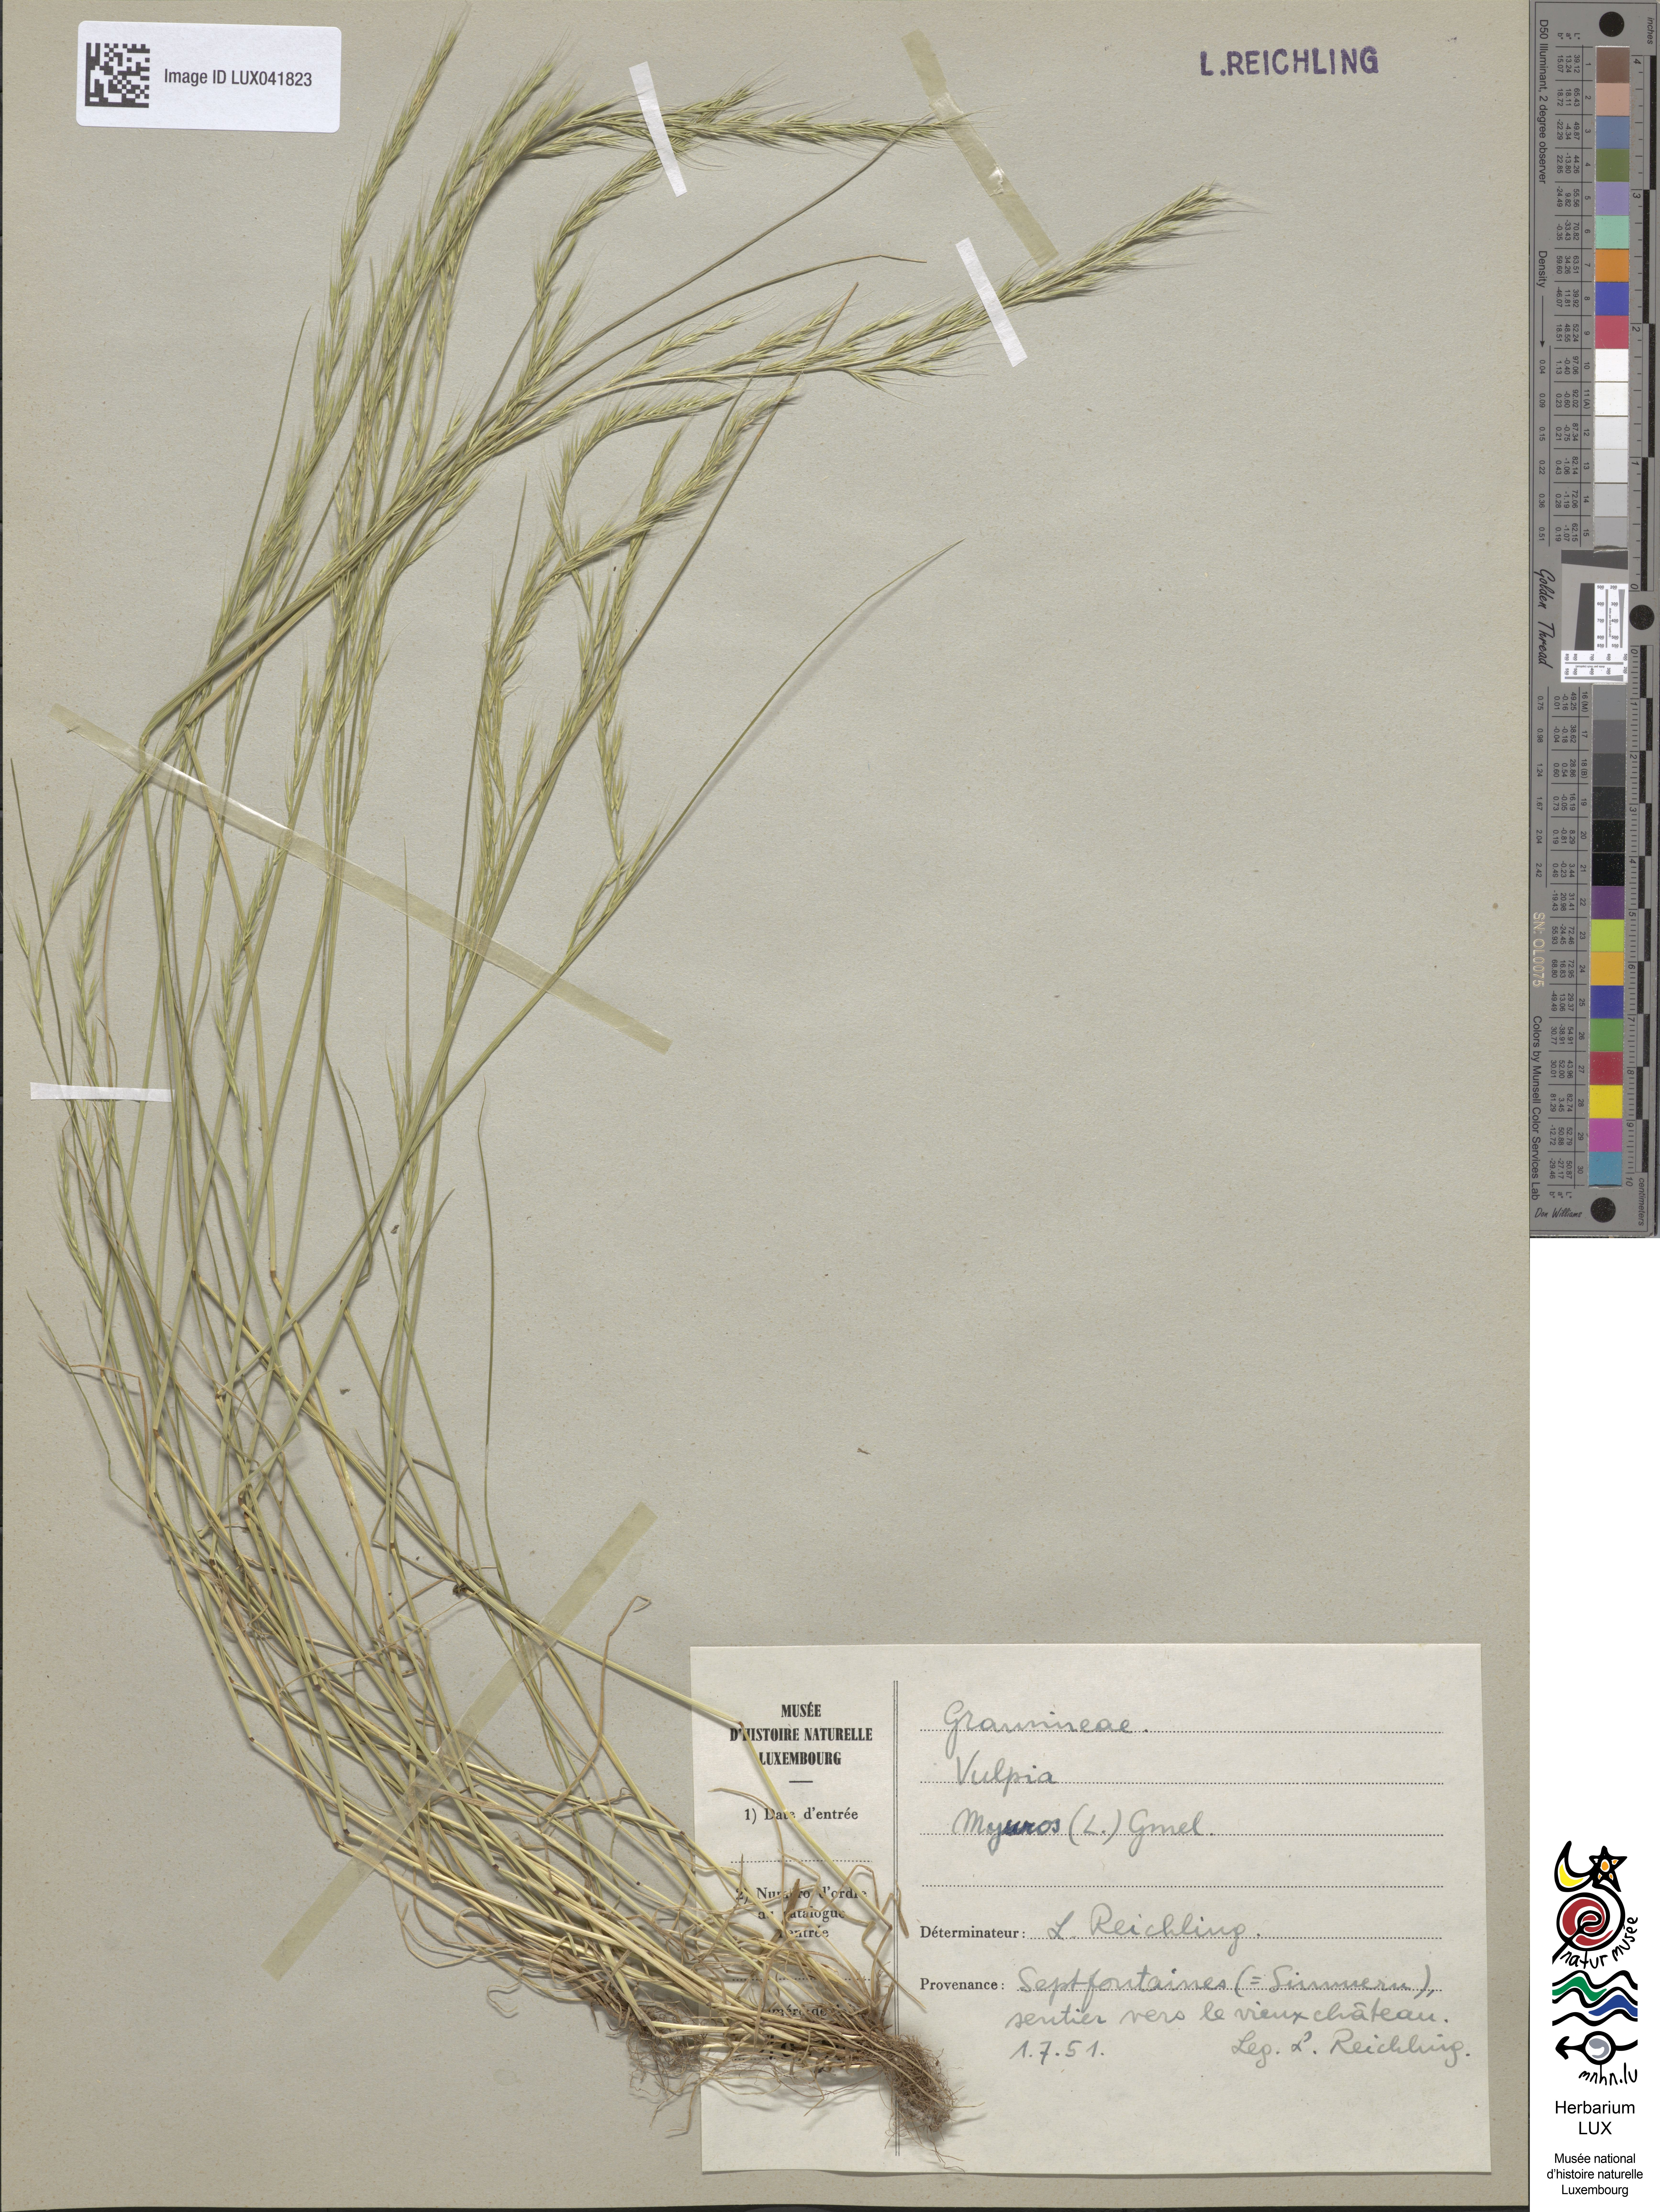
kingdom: Plantae
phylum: Tracheophyta
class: Liliopsida
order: Poales
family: Poaceae
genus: Festuca
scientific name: Festuca myuros
